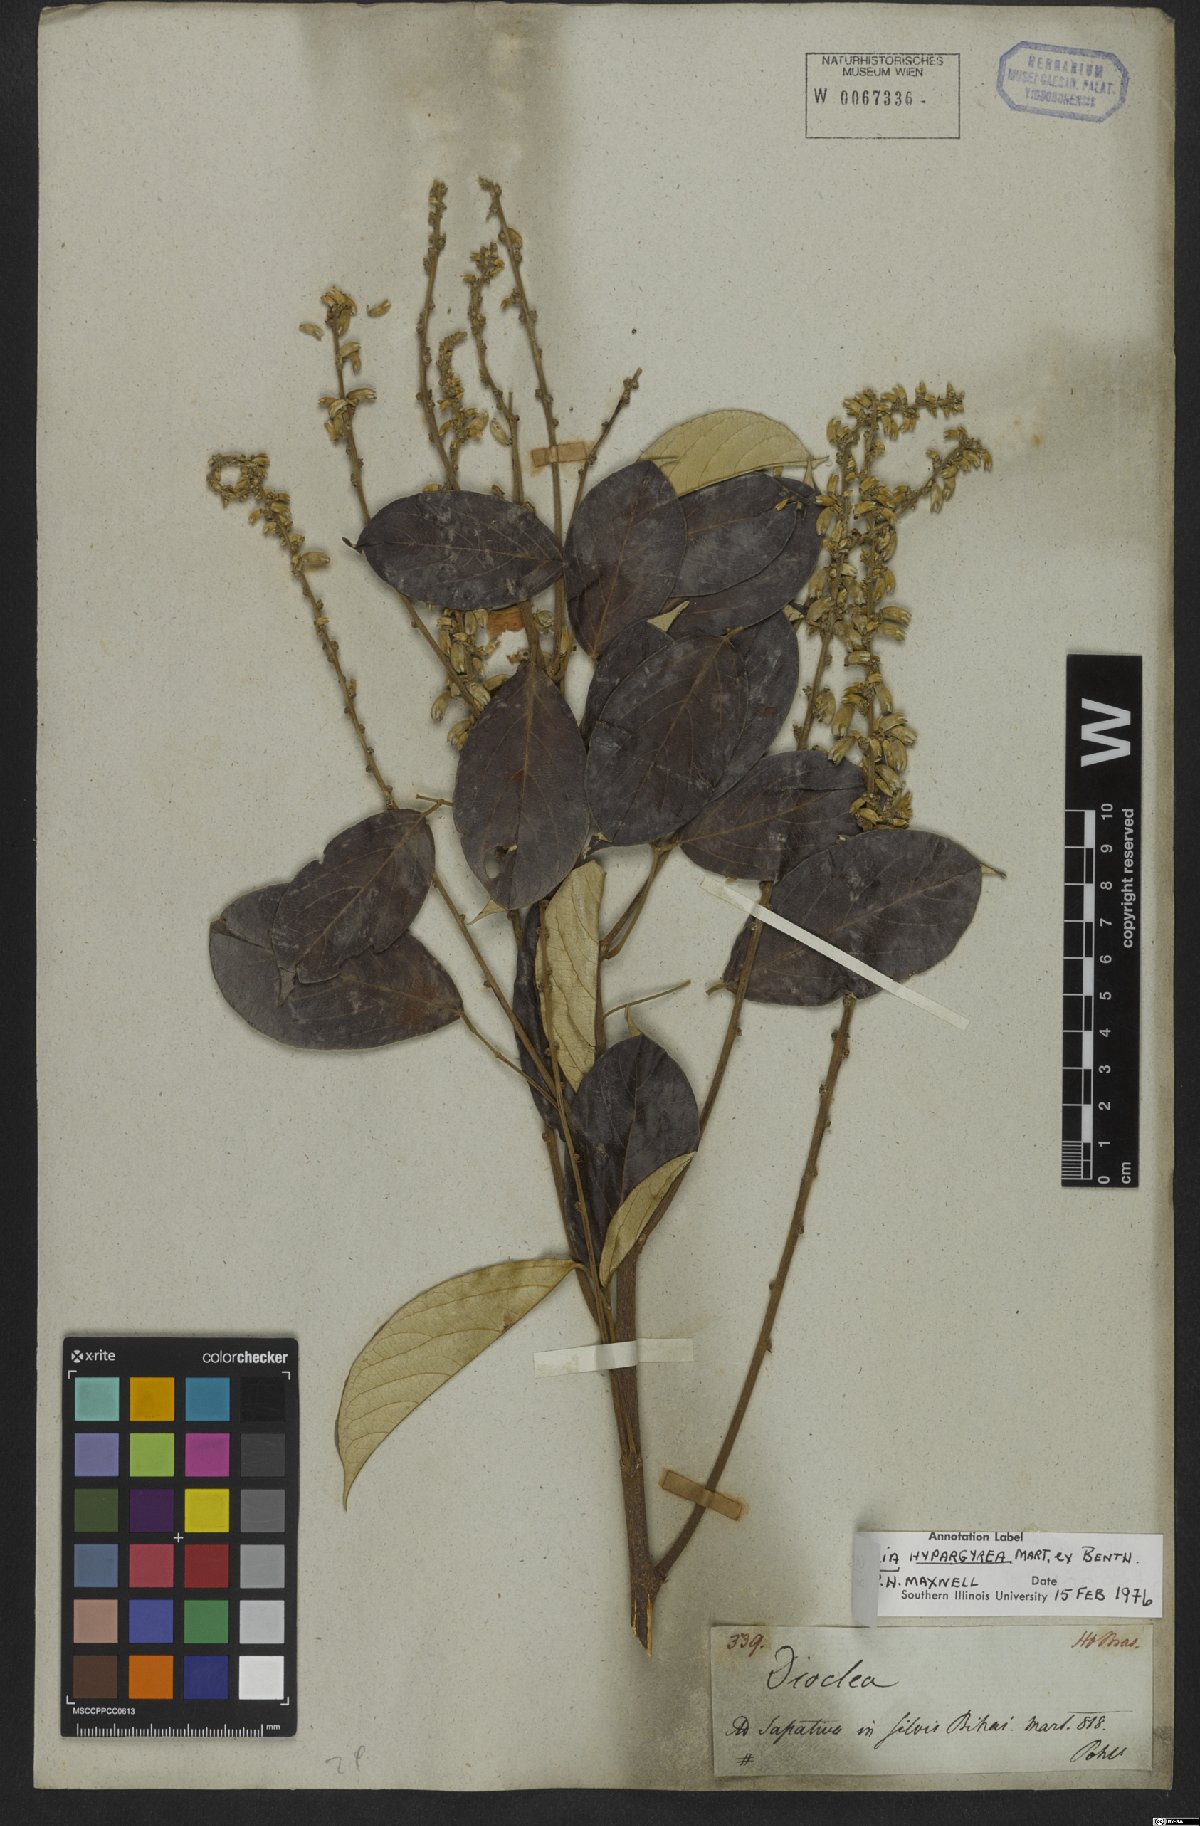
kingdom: Plantae
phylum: Tracheophyta
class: Magnoliopsida
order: Fabales
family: Fabaceae
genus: Cratylia
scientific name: Cratylia hypargyraea
